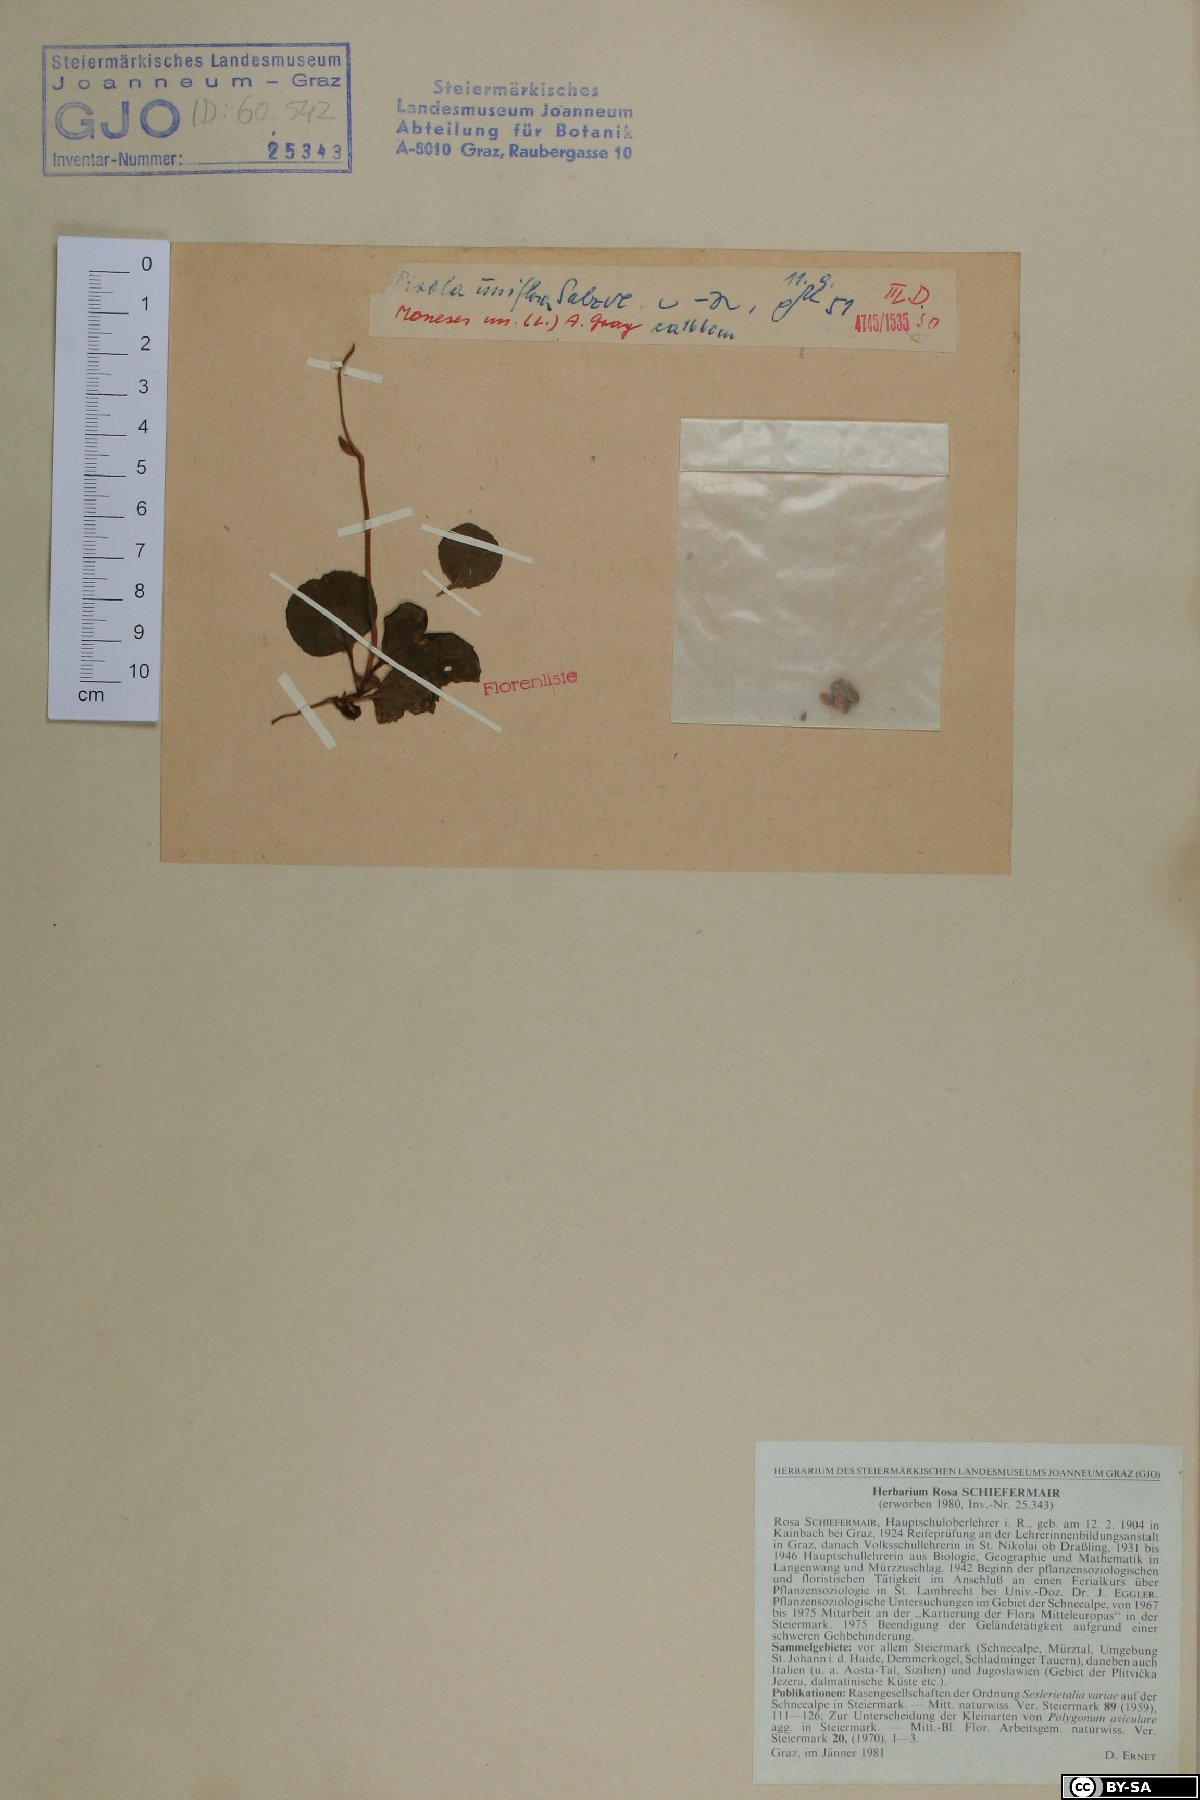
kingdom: Plantae
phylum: Tracheophyta
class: Magnoliopsida
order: Ericales
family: Ericaceae
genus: Moneses
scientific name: Moneses uniflora
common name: One-flowered wintergreen
